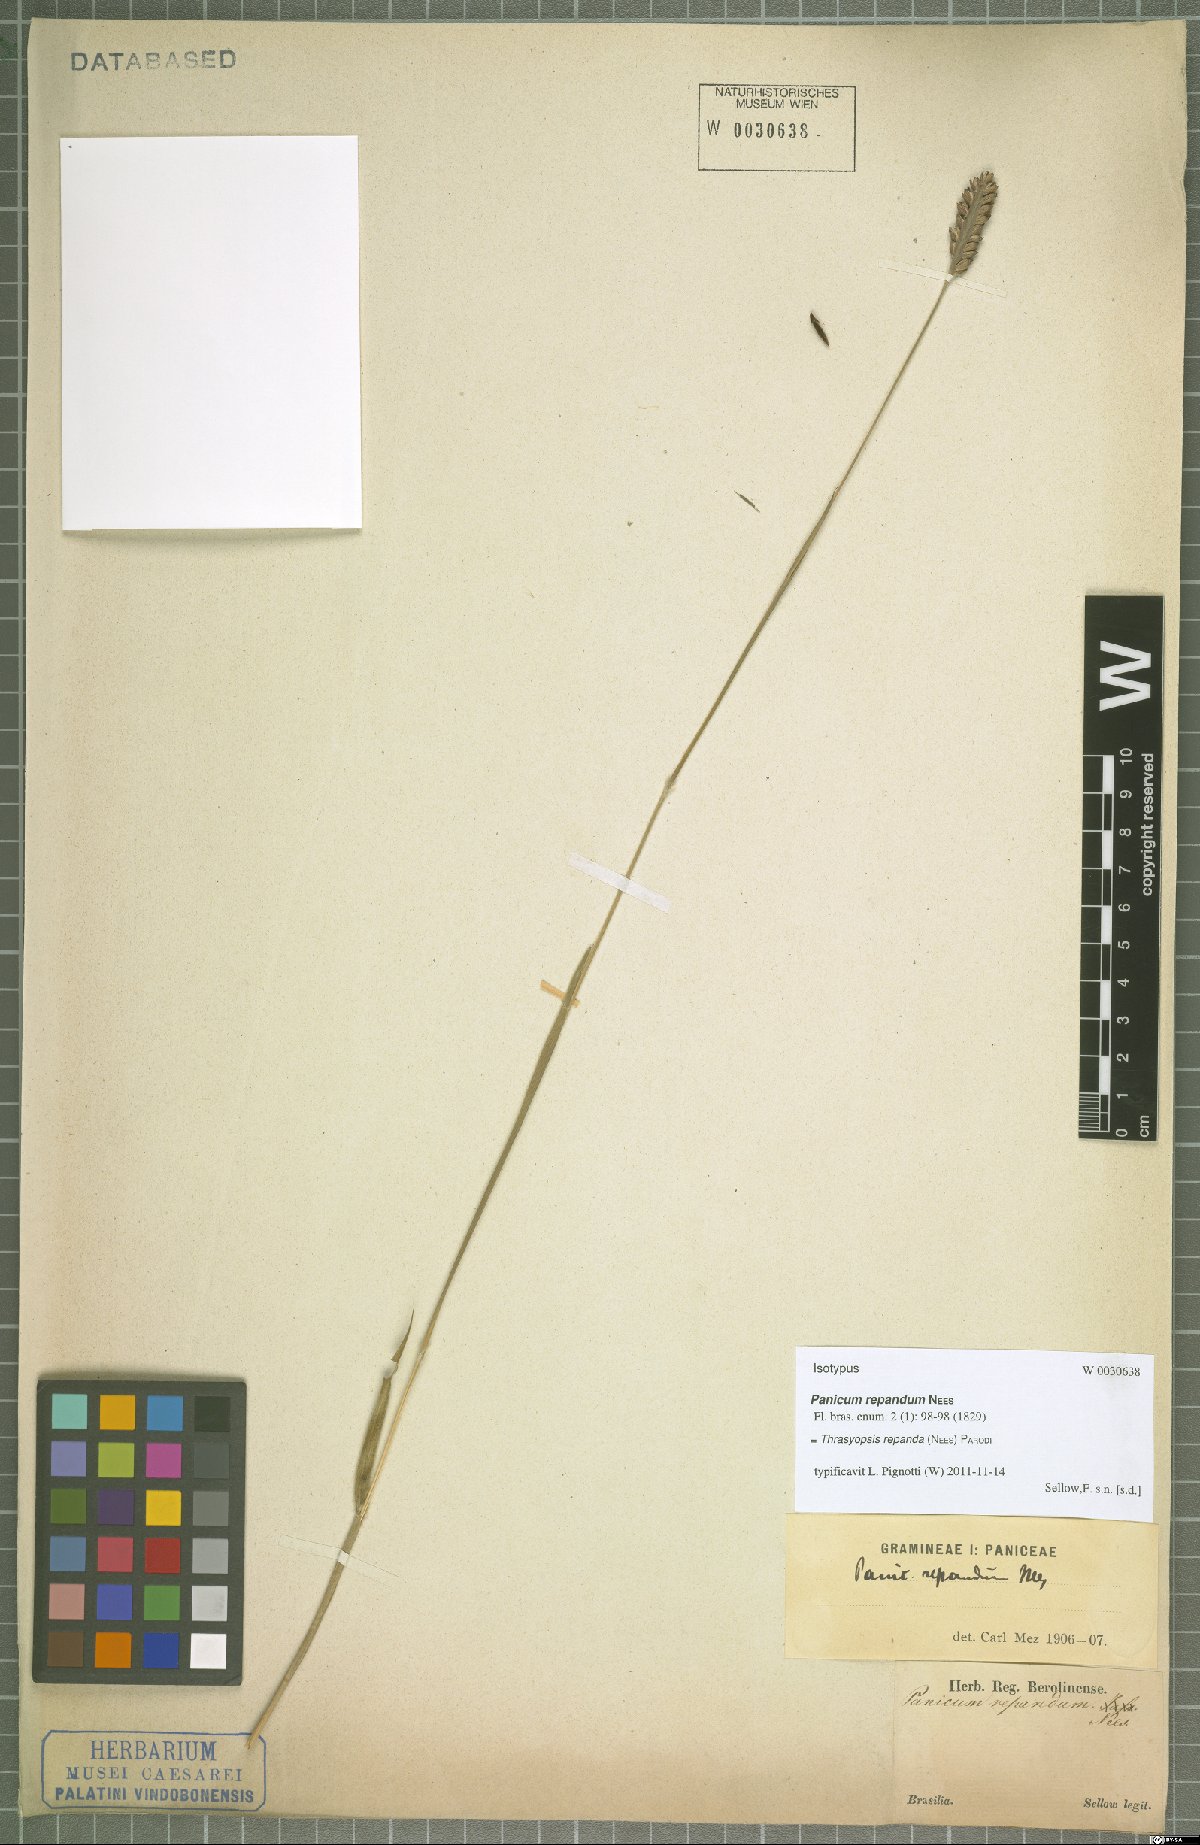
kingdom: Plantae
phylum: Tracheophyta
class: Liliopsida
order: Poales
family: Poaceae
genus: Paspalum
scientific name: Paspalum repandum
